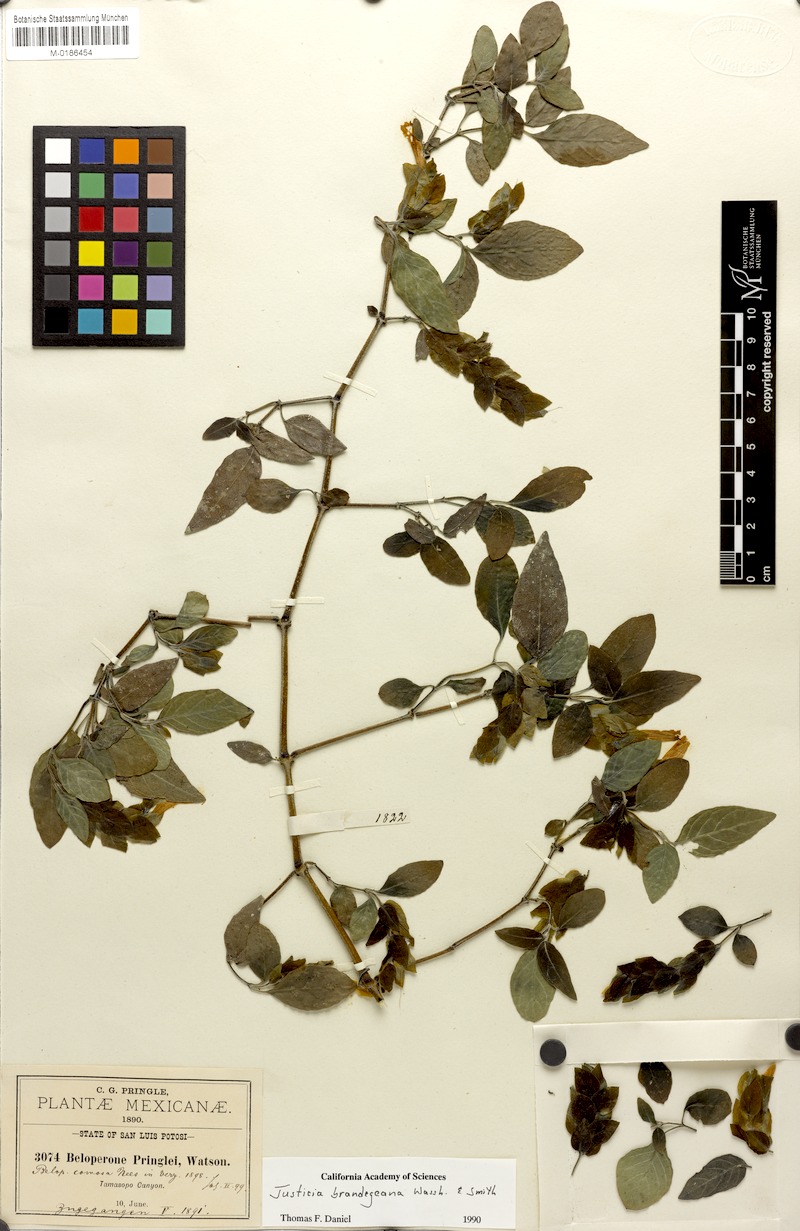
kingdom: Plantae
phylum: Tracheophyta
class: Magnoliopsida
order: Lamiales
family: Acanthaceae
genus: Justicia
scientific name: Justicia brandegeeana
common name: Shrimpplant
